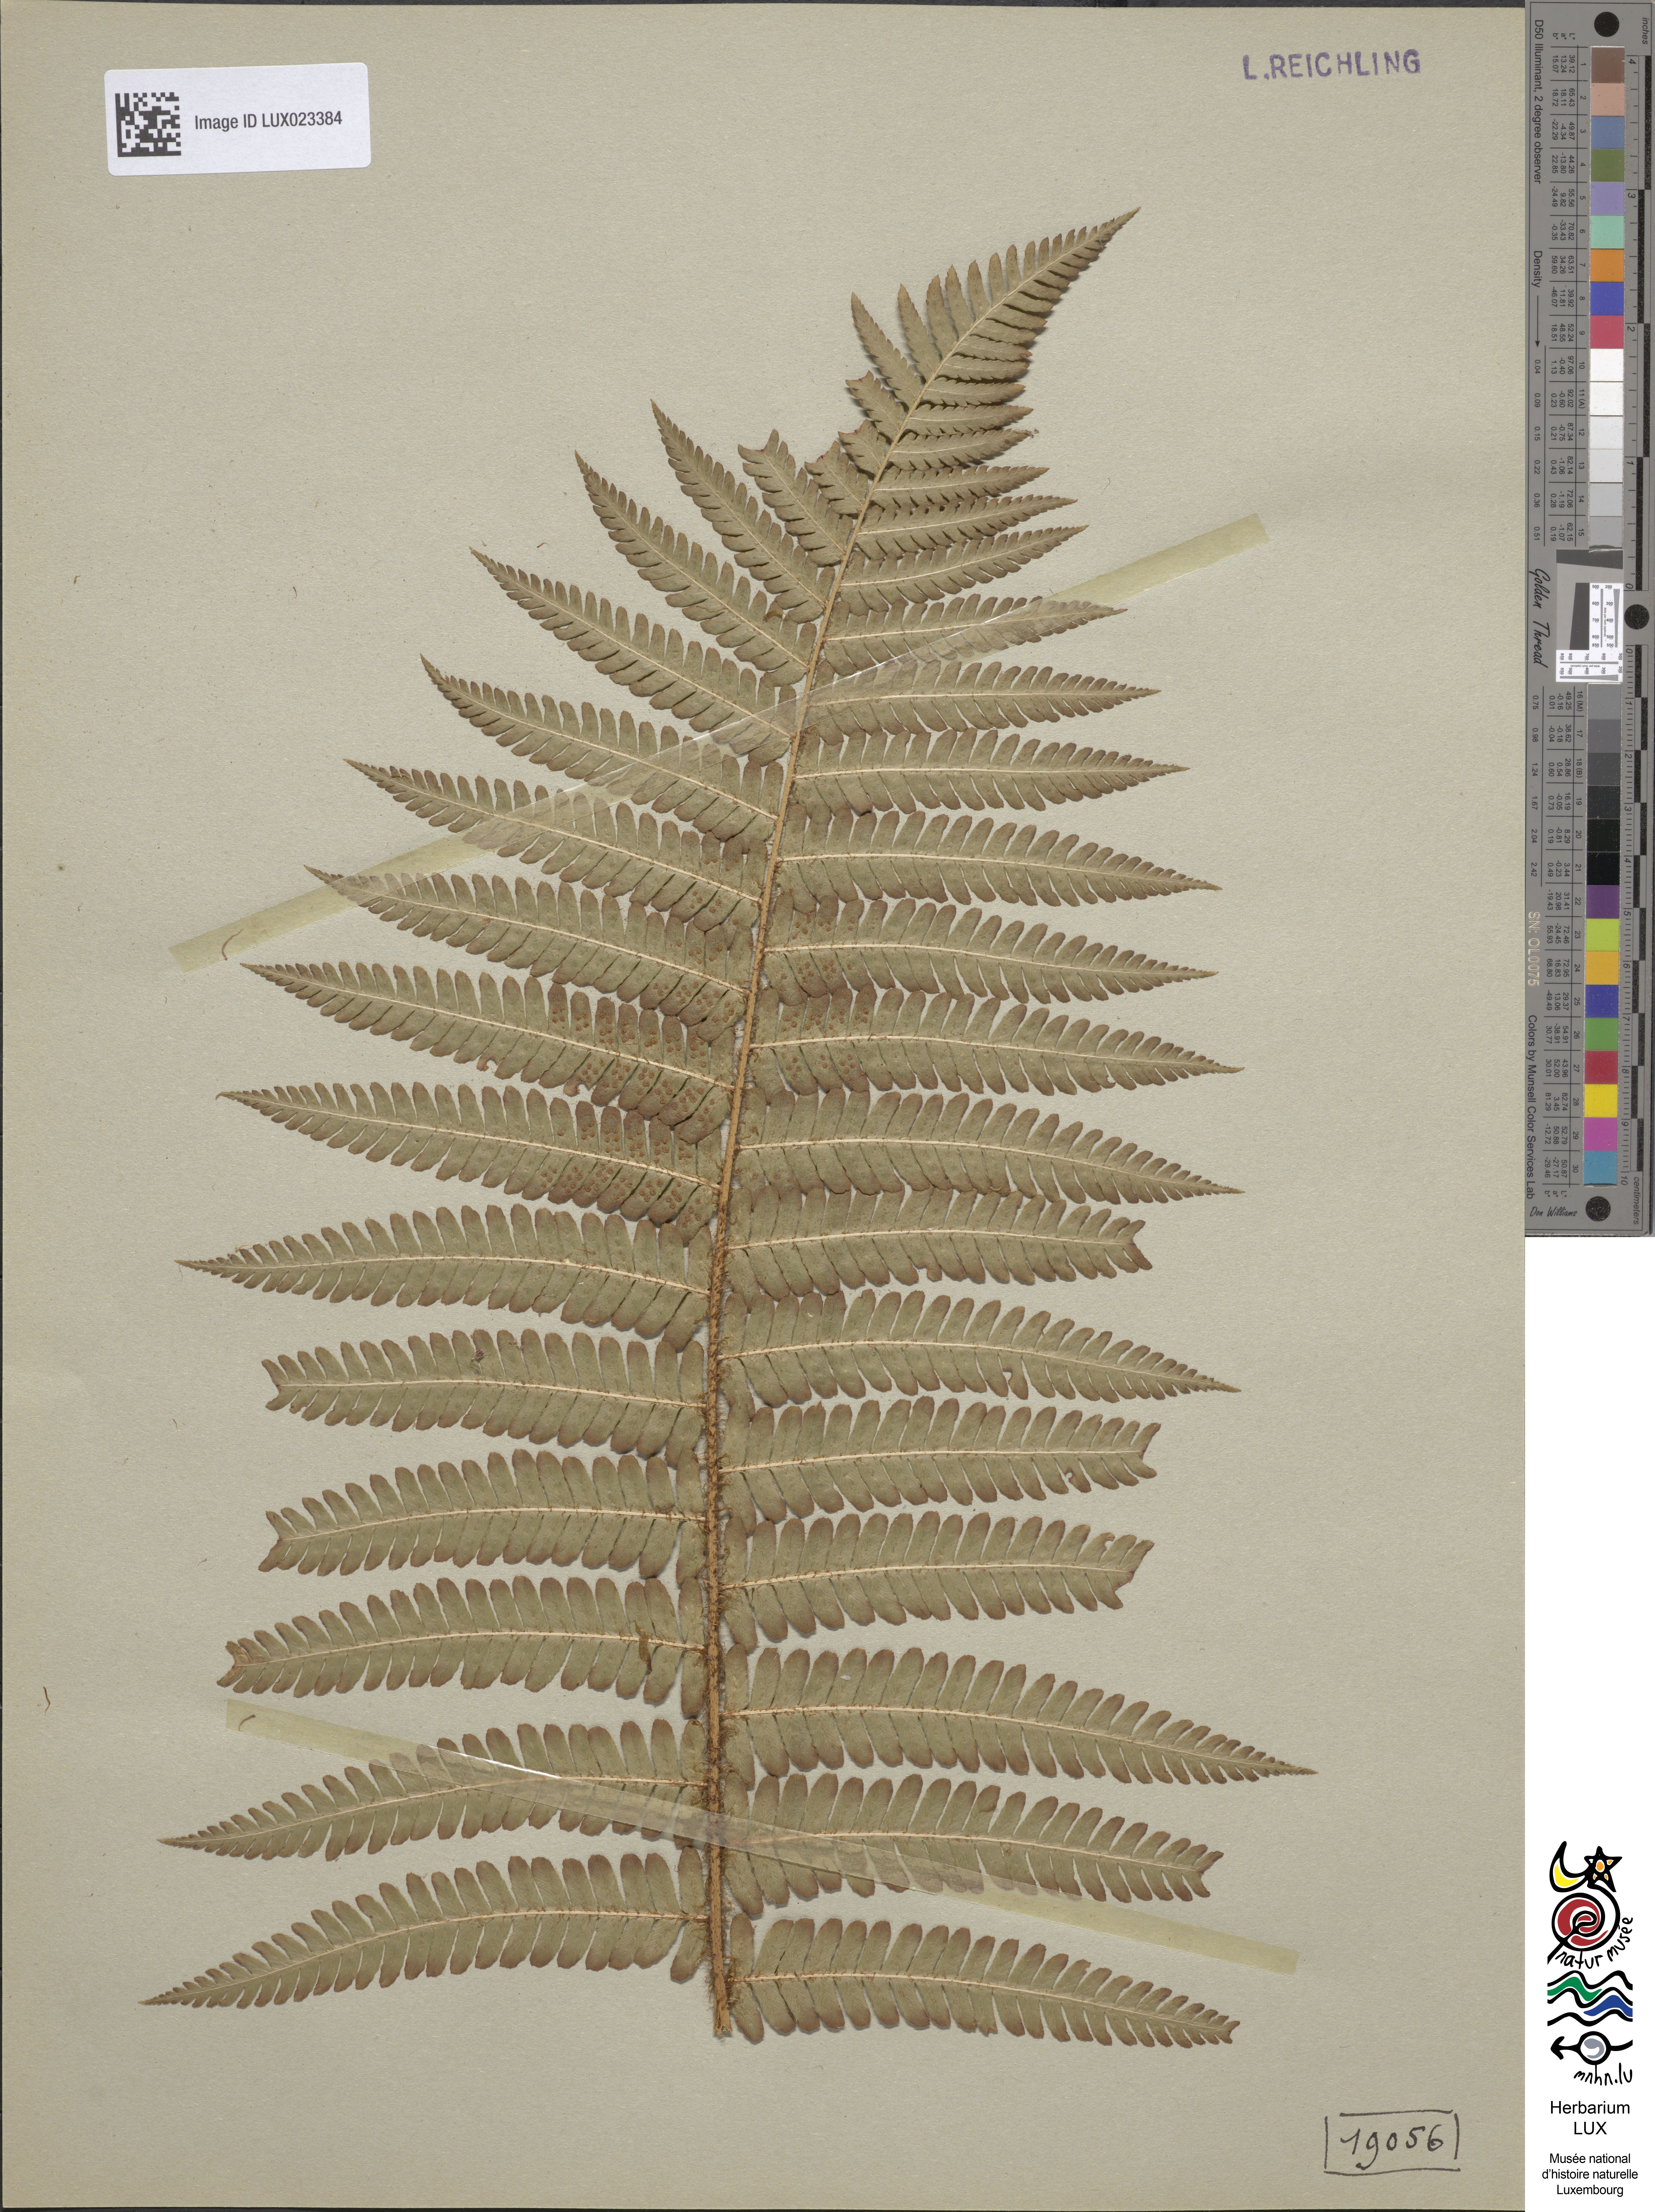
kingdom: Plantae
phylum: Tracheophyta
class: Polypodiopsida
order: Polypodiales
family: Dryopteridaceae
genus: Dryopteris
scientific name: Dryopteris borreri
